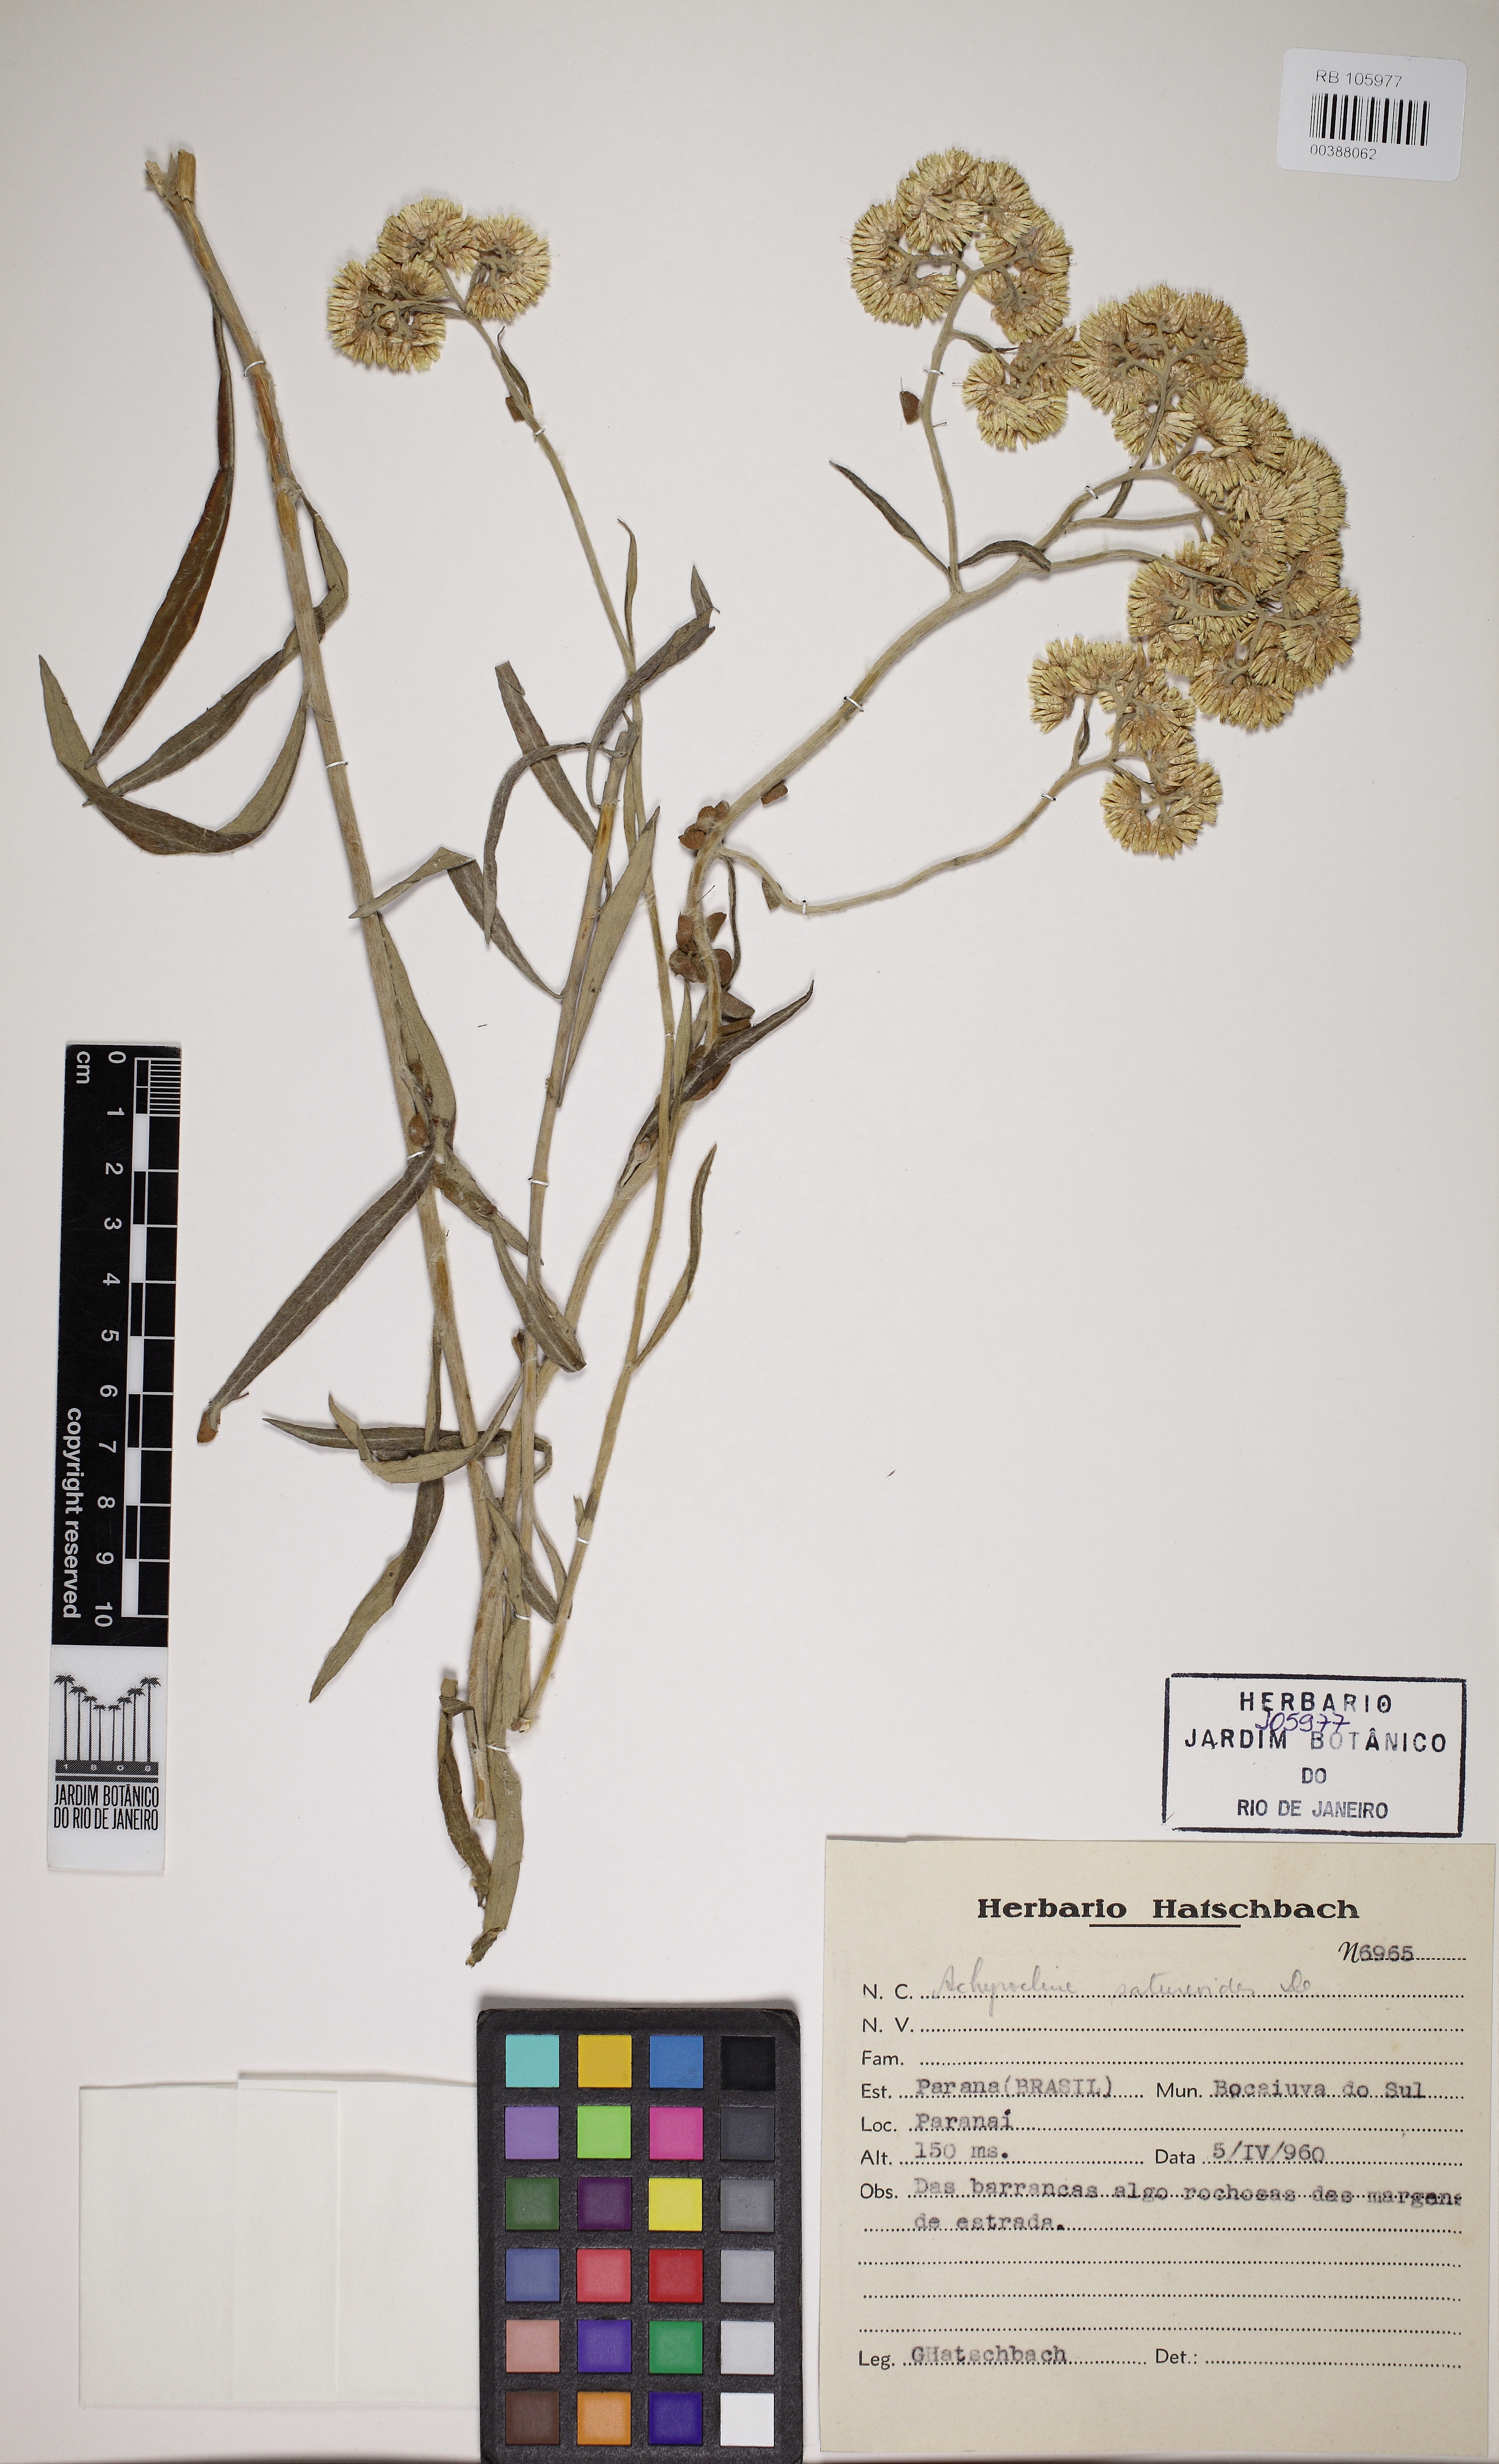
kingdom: Plantae
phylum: Tracheophyta
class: Magnoliopsida
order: Asterales
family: Asteraceae
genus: Achyrocline
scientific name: Achyrocline satureioides
